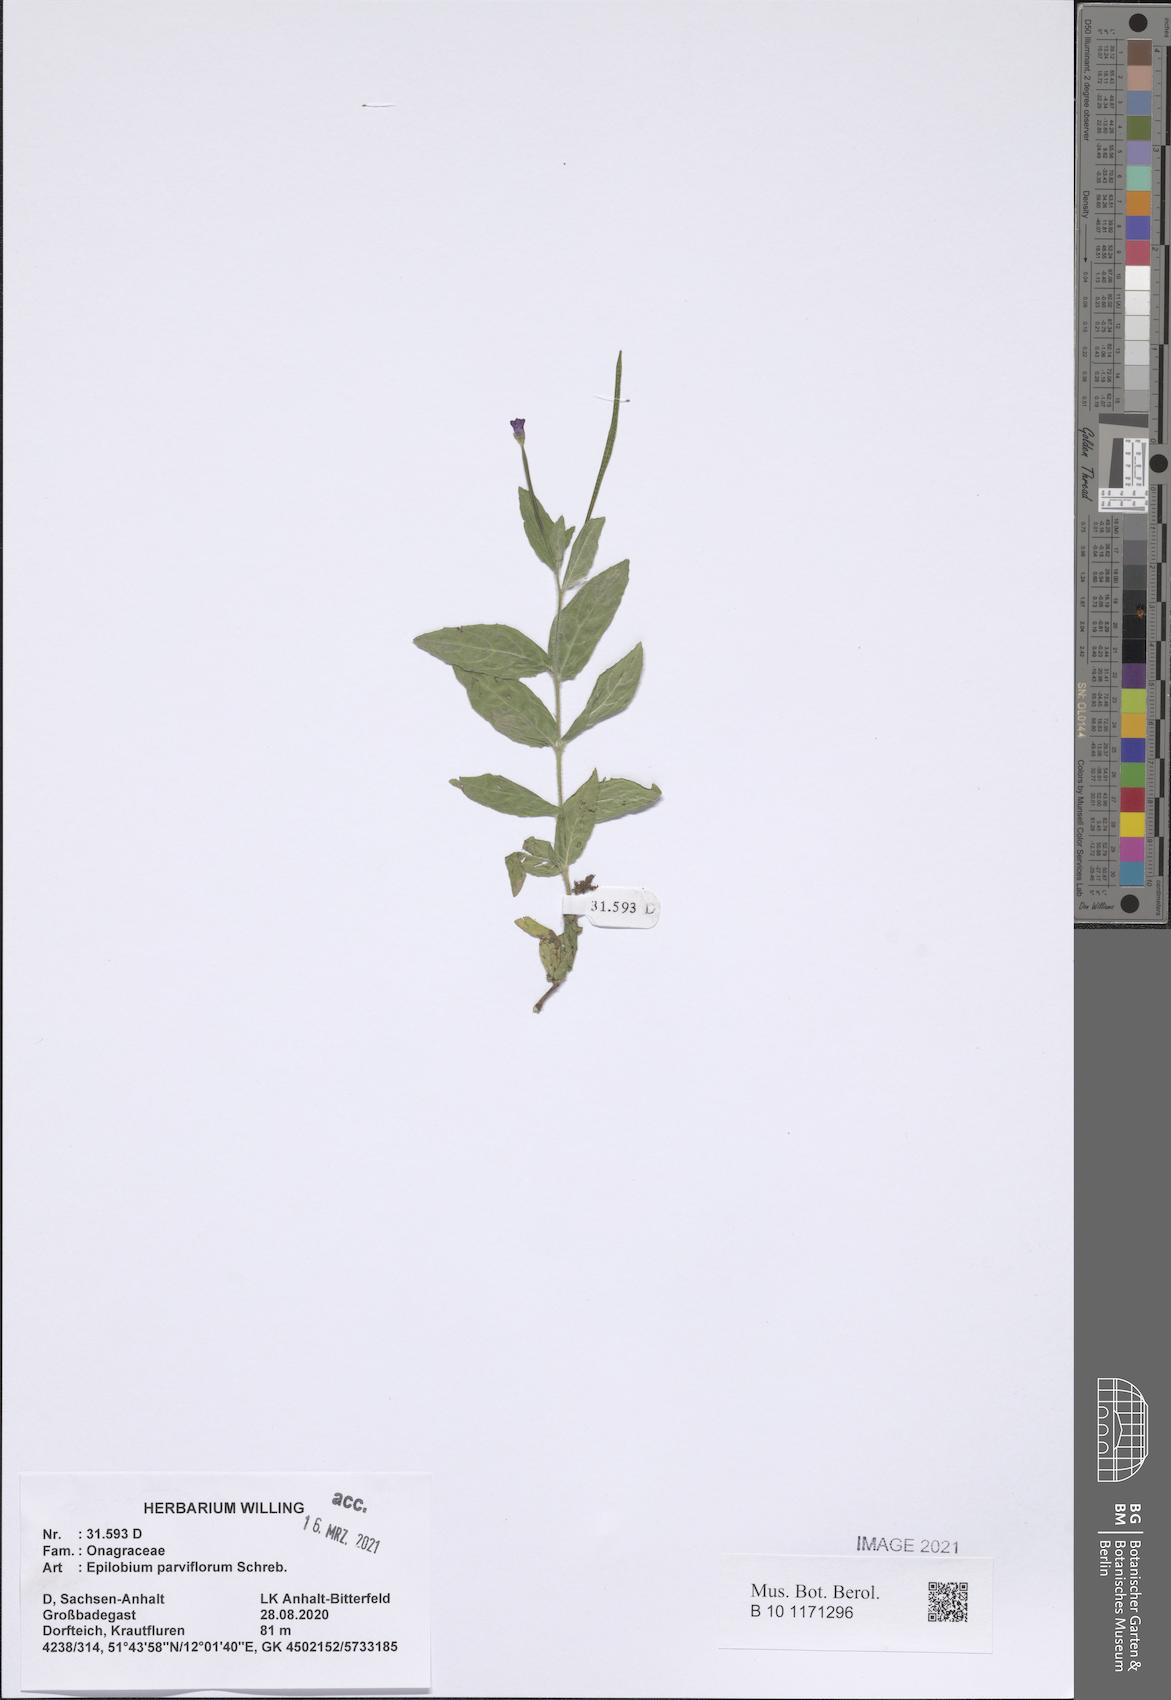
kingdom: Plantae
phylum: Tracheophyta
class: Magnoliopsida
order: Myrtales
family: Onagraceae
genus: Epilobium
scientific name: Epilobium parviflorum
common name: Hoary willowherb
